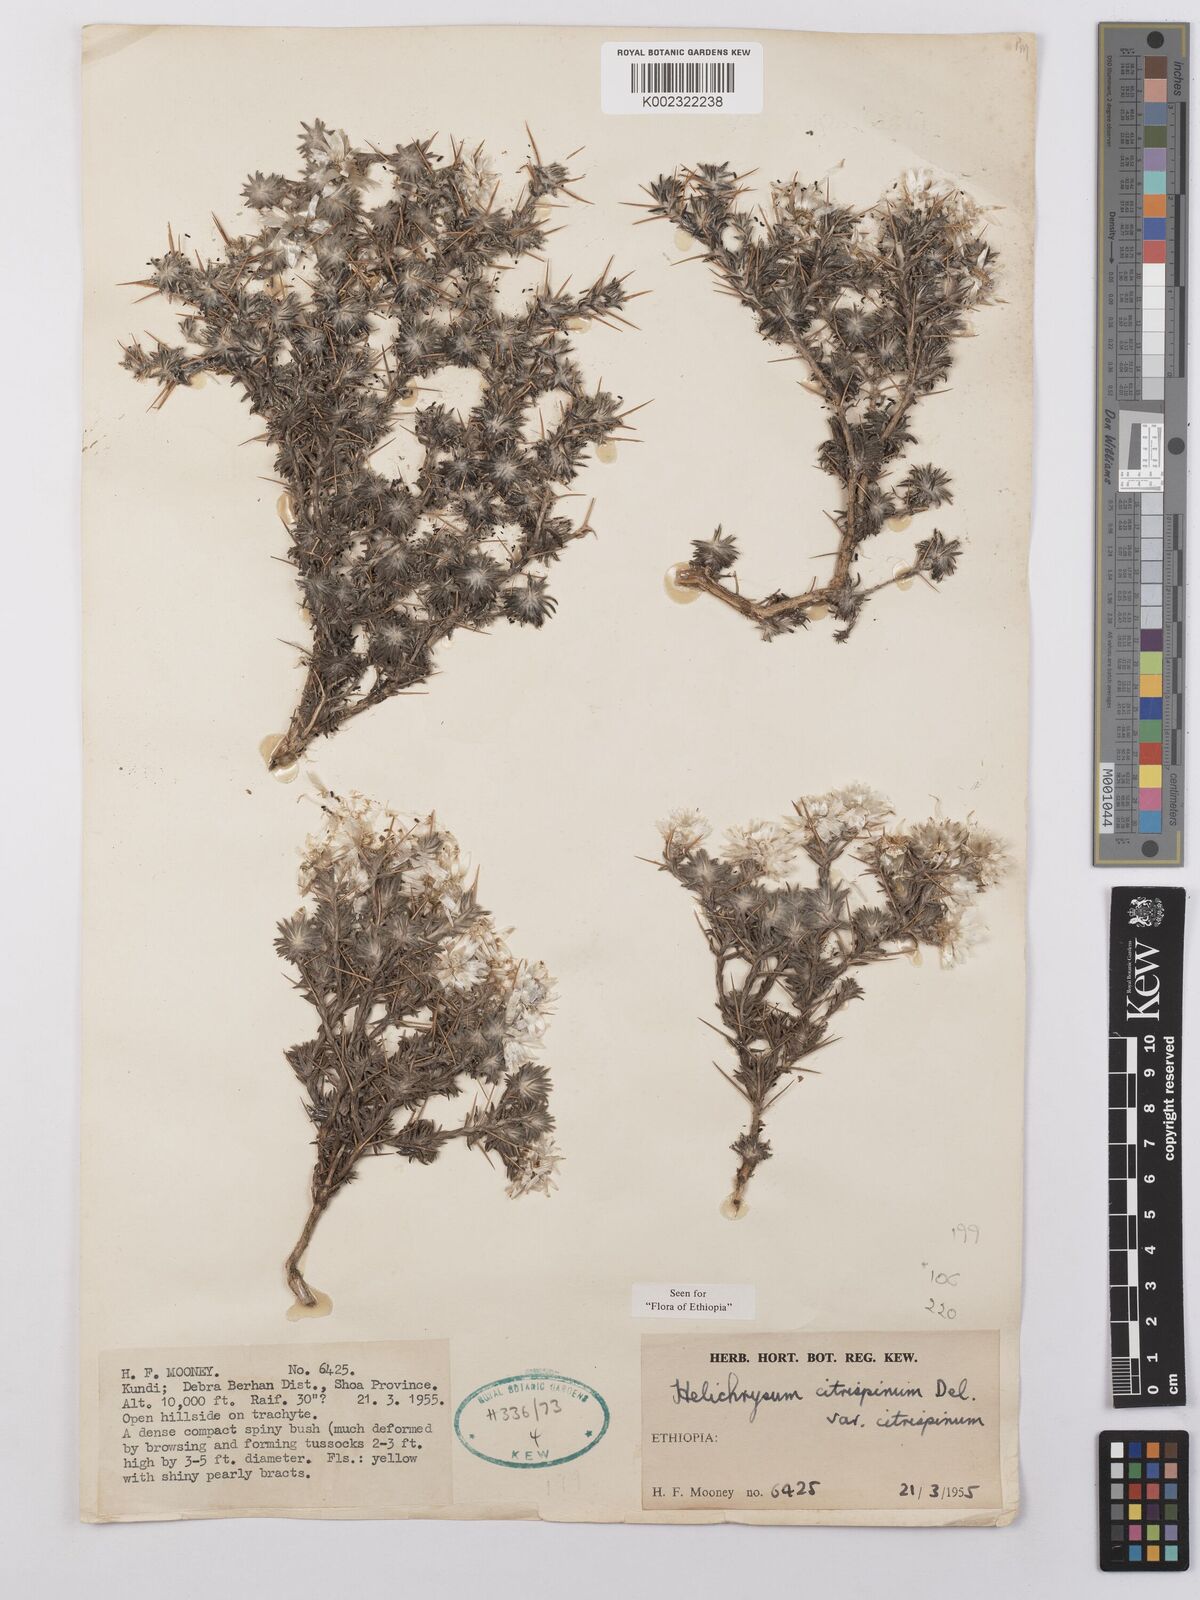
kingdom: Plantae
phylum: Tracheophyta
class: Magnoliopsida
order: Asterales
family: Asteraceae
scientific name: Asteraceae
